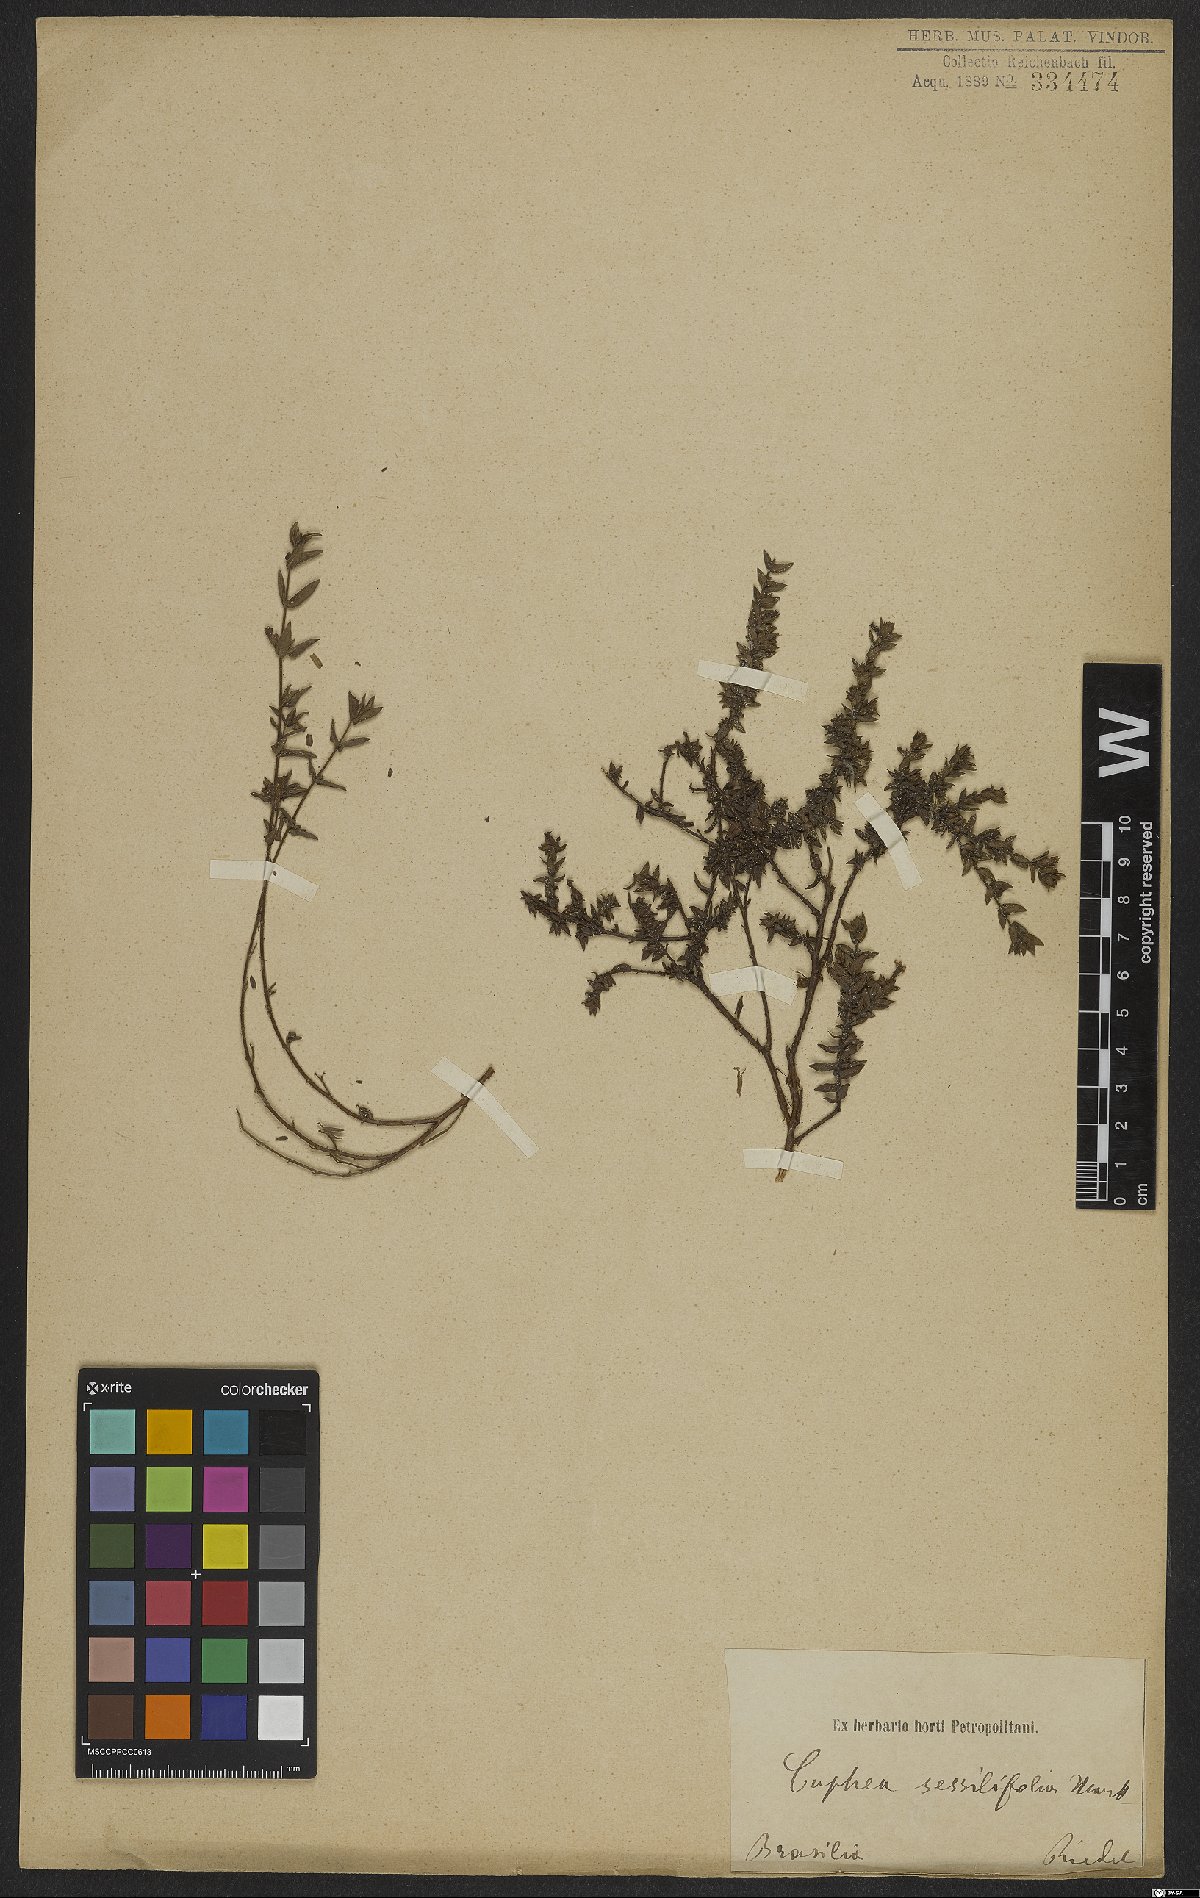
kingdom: Plantae
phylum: Tracheophyta
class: Magnoliopsida
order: Myrtales
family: Lythraceae
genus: Cuphea
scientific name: Cuphea sessilifolia
